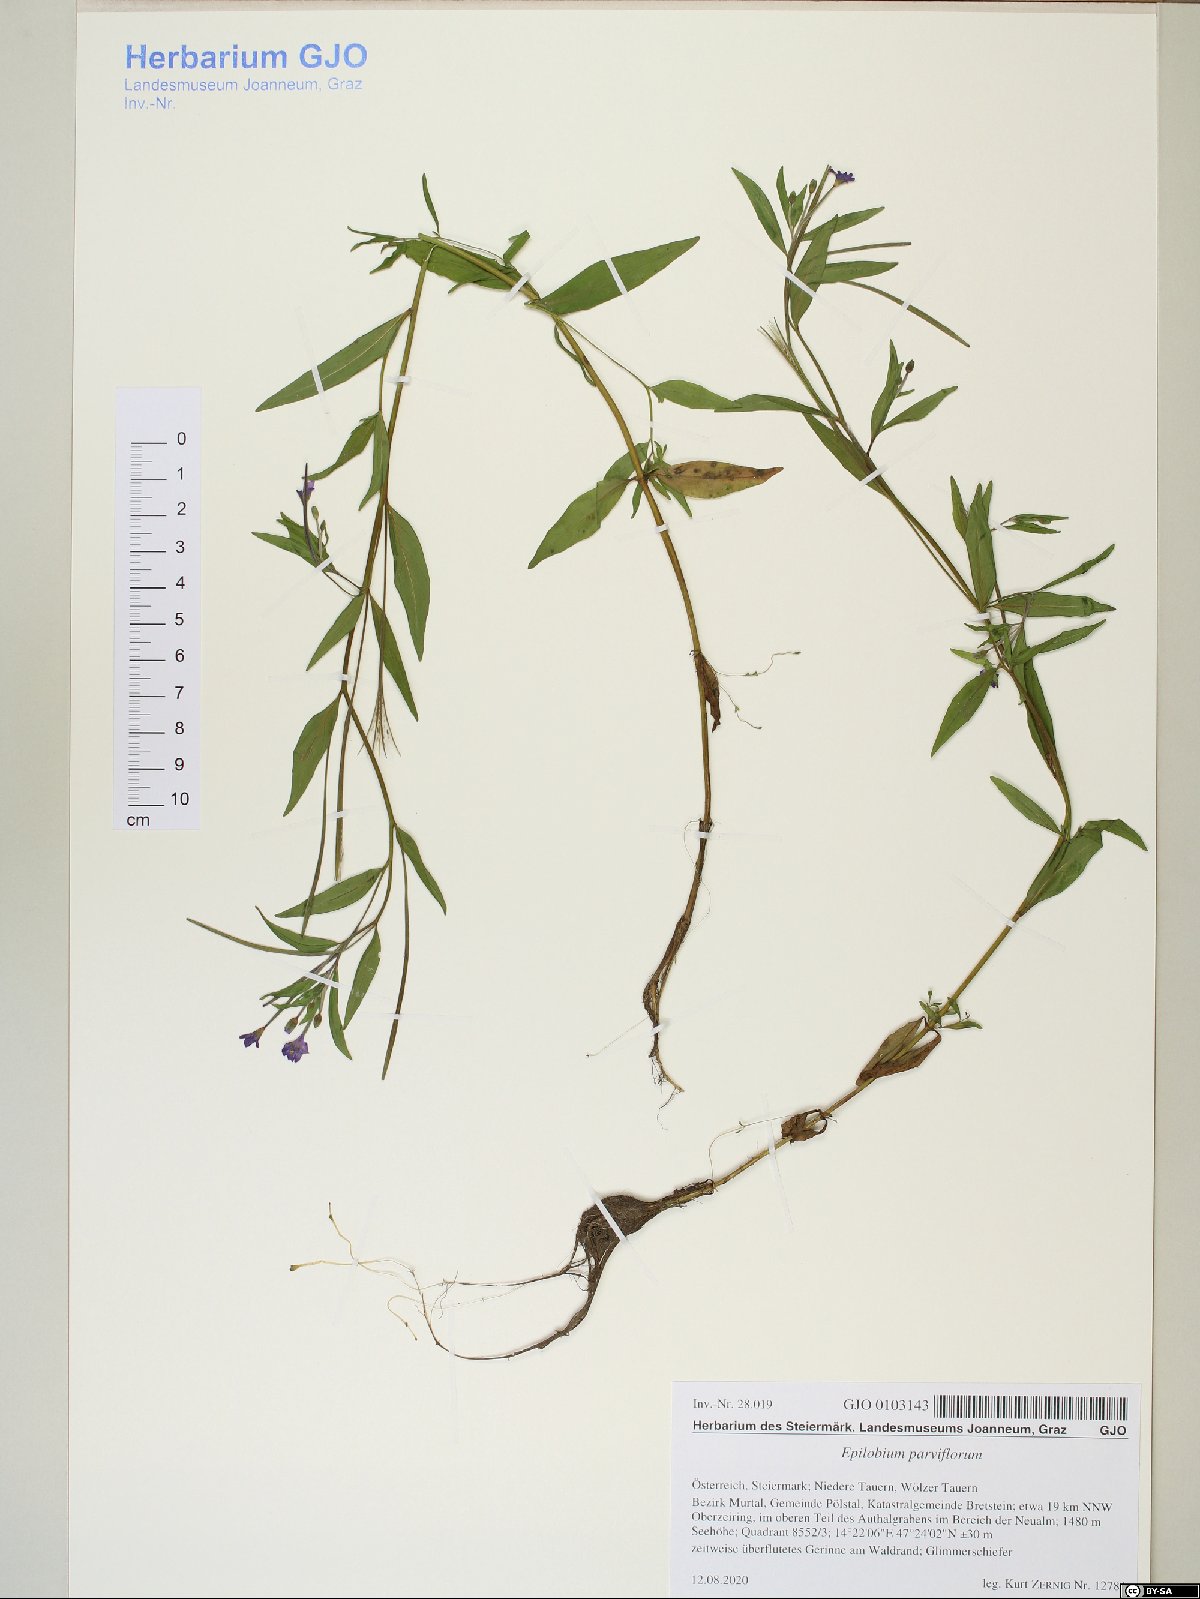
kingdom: Plantae
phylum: Tracheophyta
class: Magnoliopsida
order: Myrtales
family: Onagraceae
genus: Epilobium
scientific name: Epilobium parviflorum
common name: Hoary willowherb
